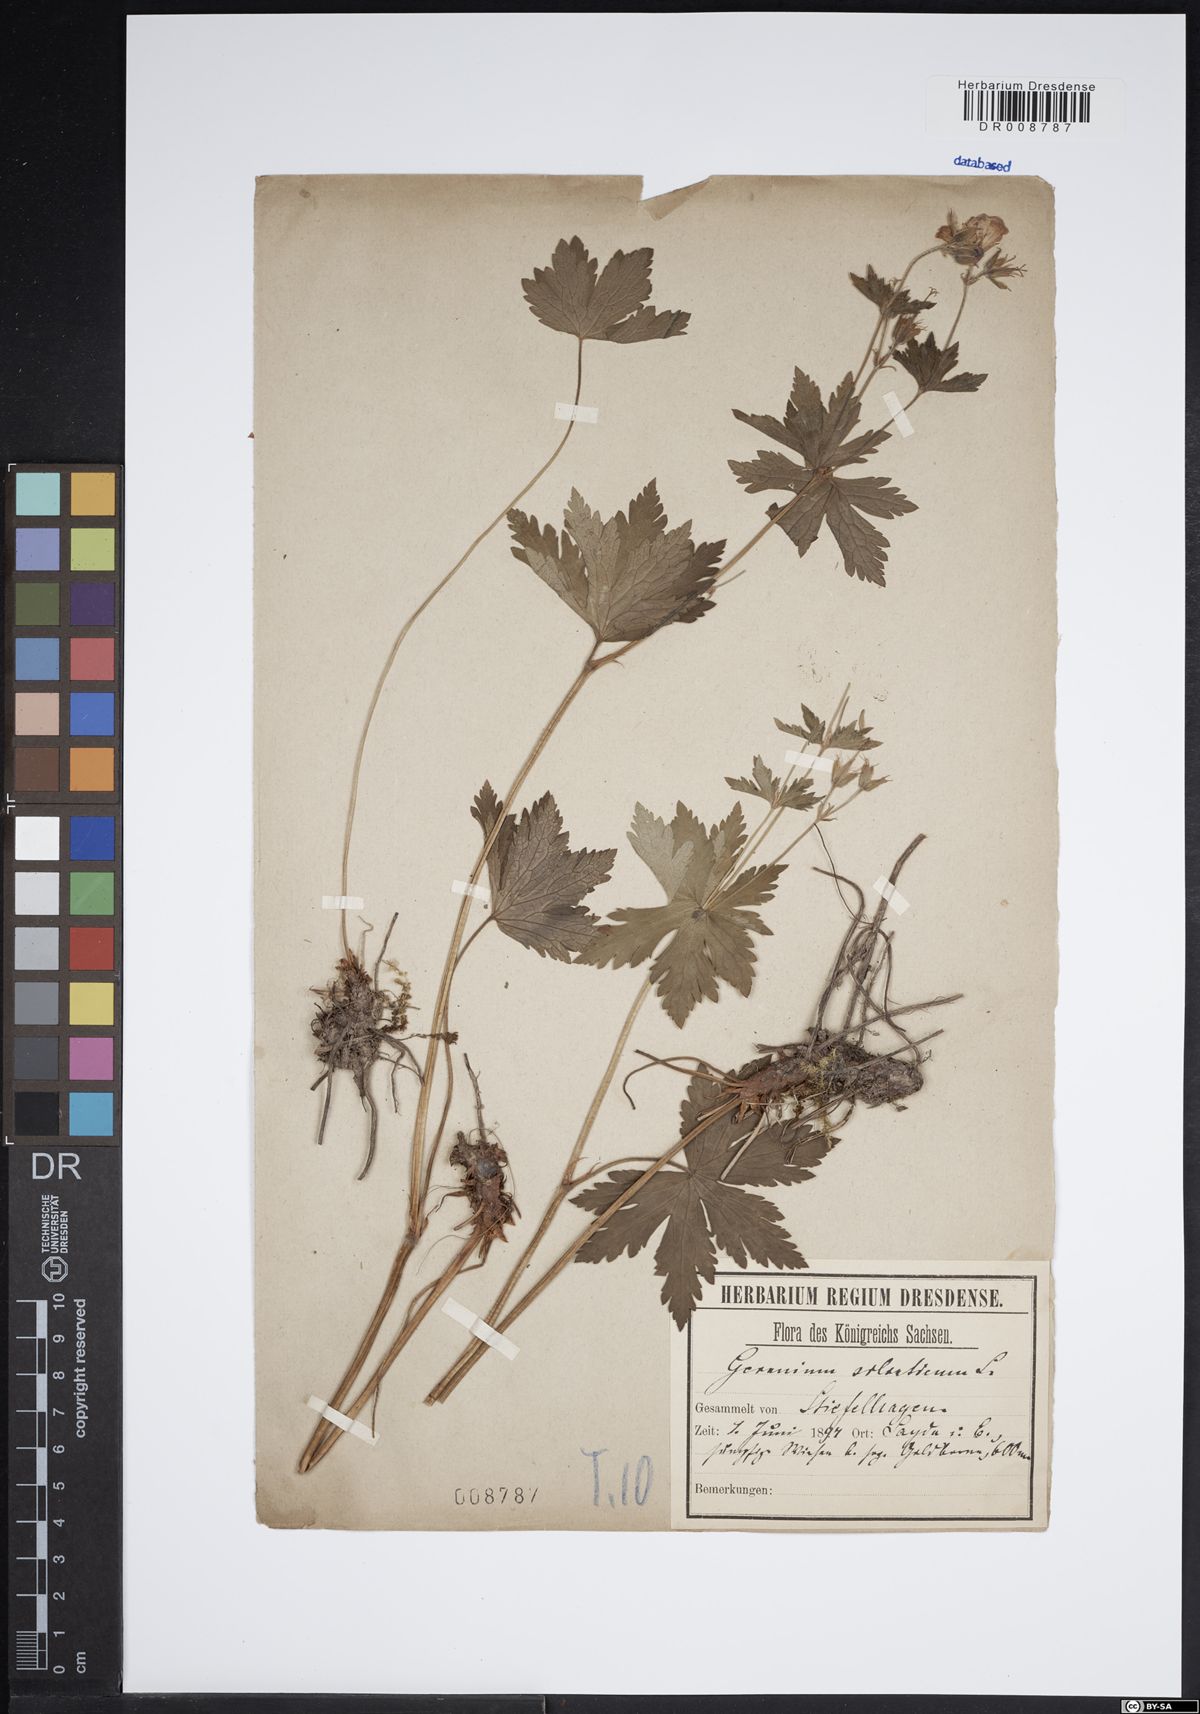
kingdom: Plantae
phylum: Tracheophyta
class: Magnoliopsida
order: Geraniales
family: Geraniaceae
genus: Geranium
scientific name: Geranium sylvaticum
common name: Wood crane's-bill
